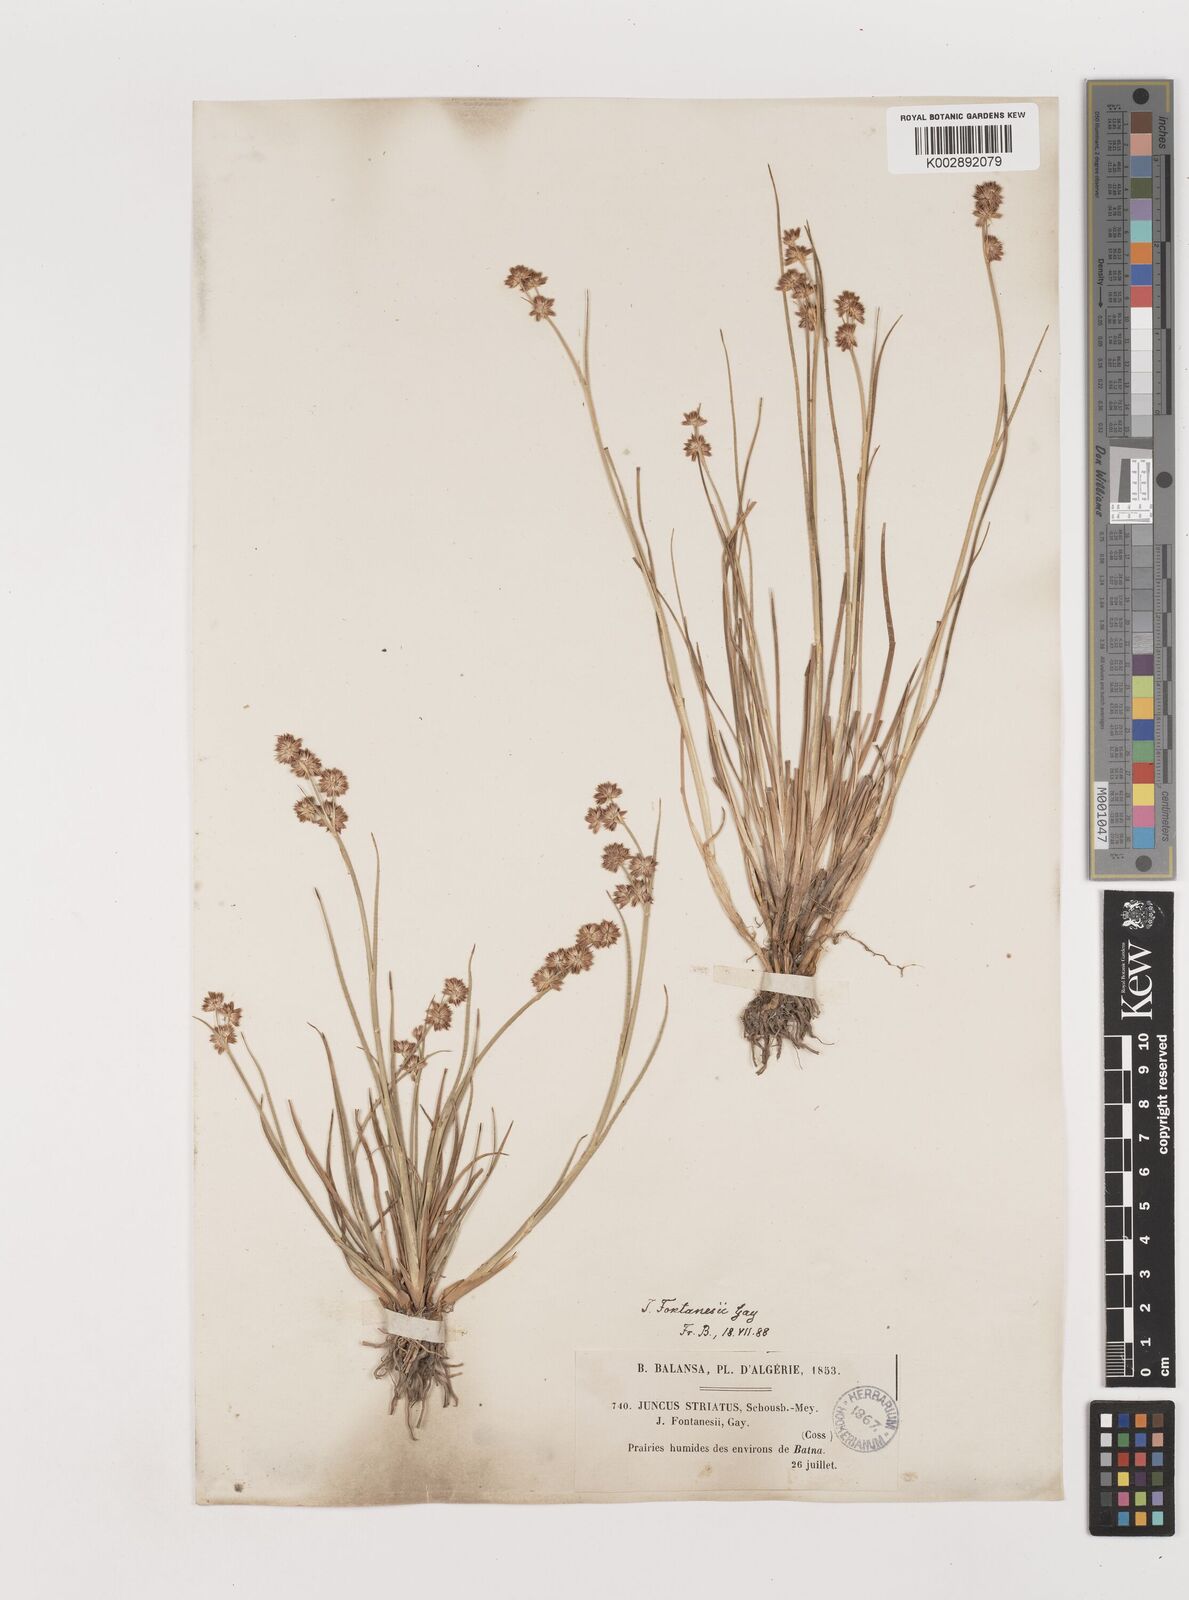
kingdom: Plantae
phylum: Tracheophyta
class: Liliopsida
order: Poales
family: Juncaceae
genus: Juncus
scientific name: Juncus fontanesii
